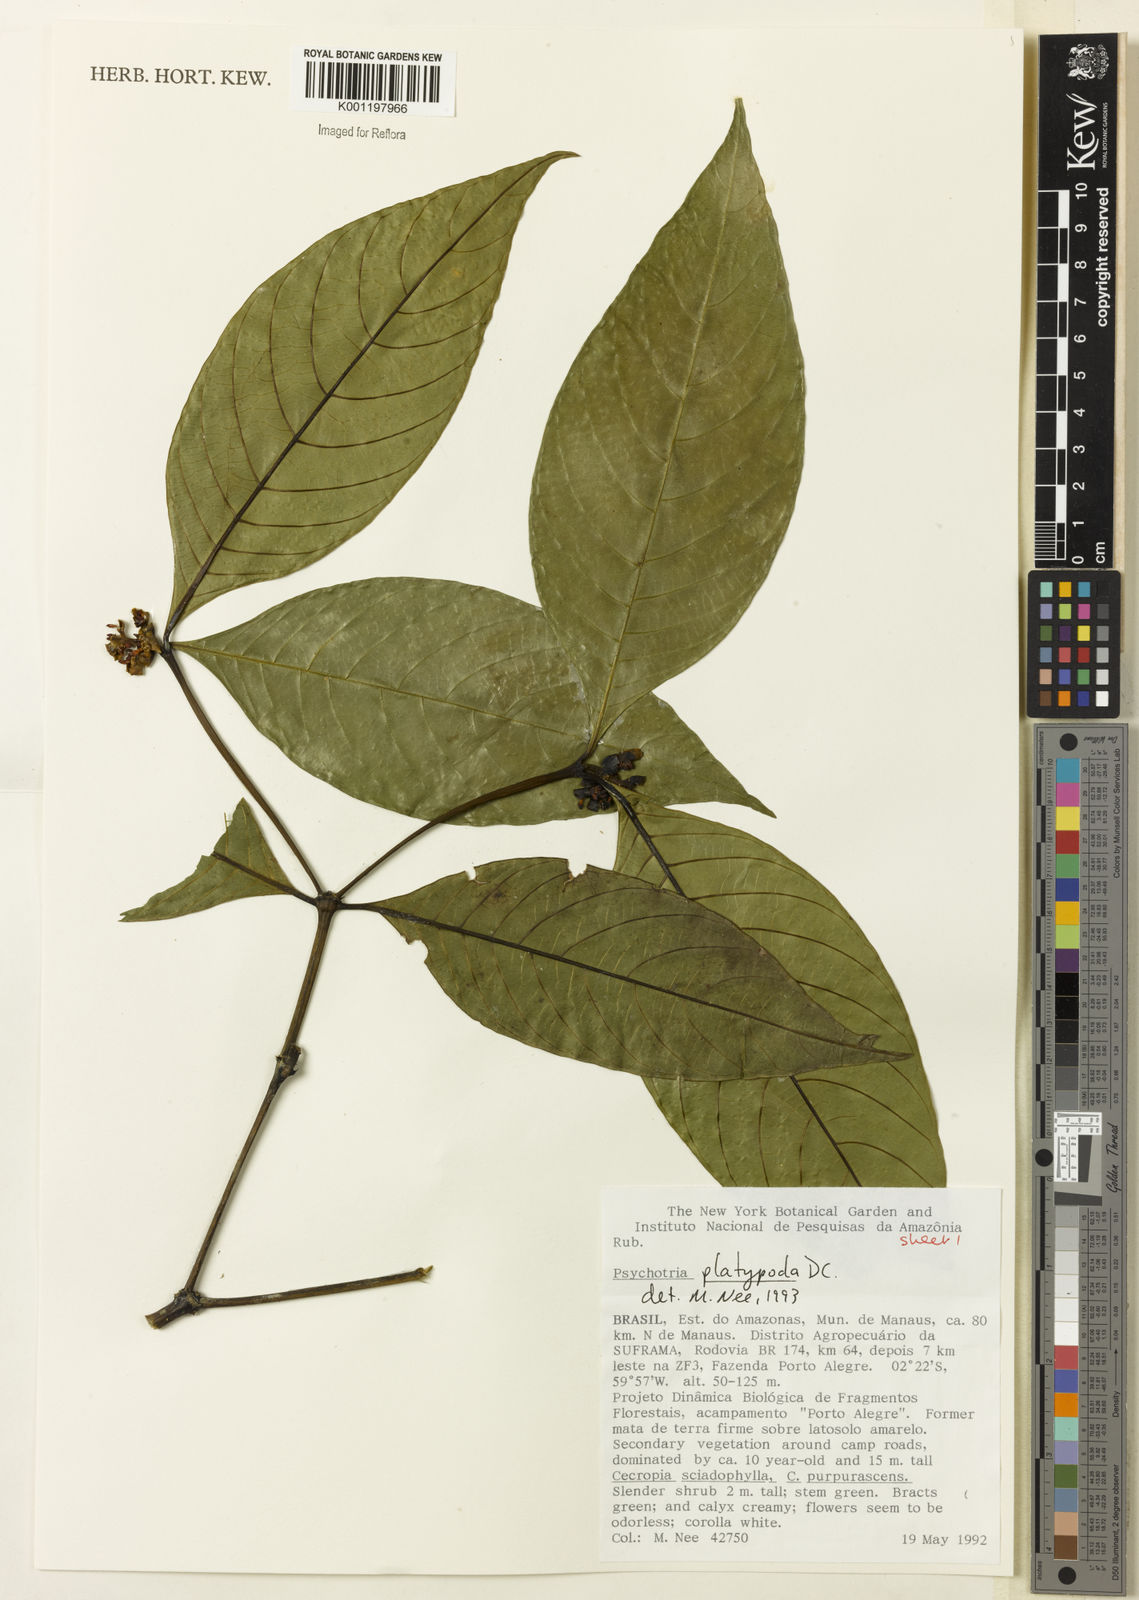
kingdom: Plantae
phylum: Tracheophyta
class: Magnoliopsida
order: Gentianales
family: Rubiaceae
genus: Palicourea
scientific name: Palicourea dichotoma
